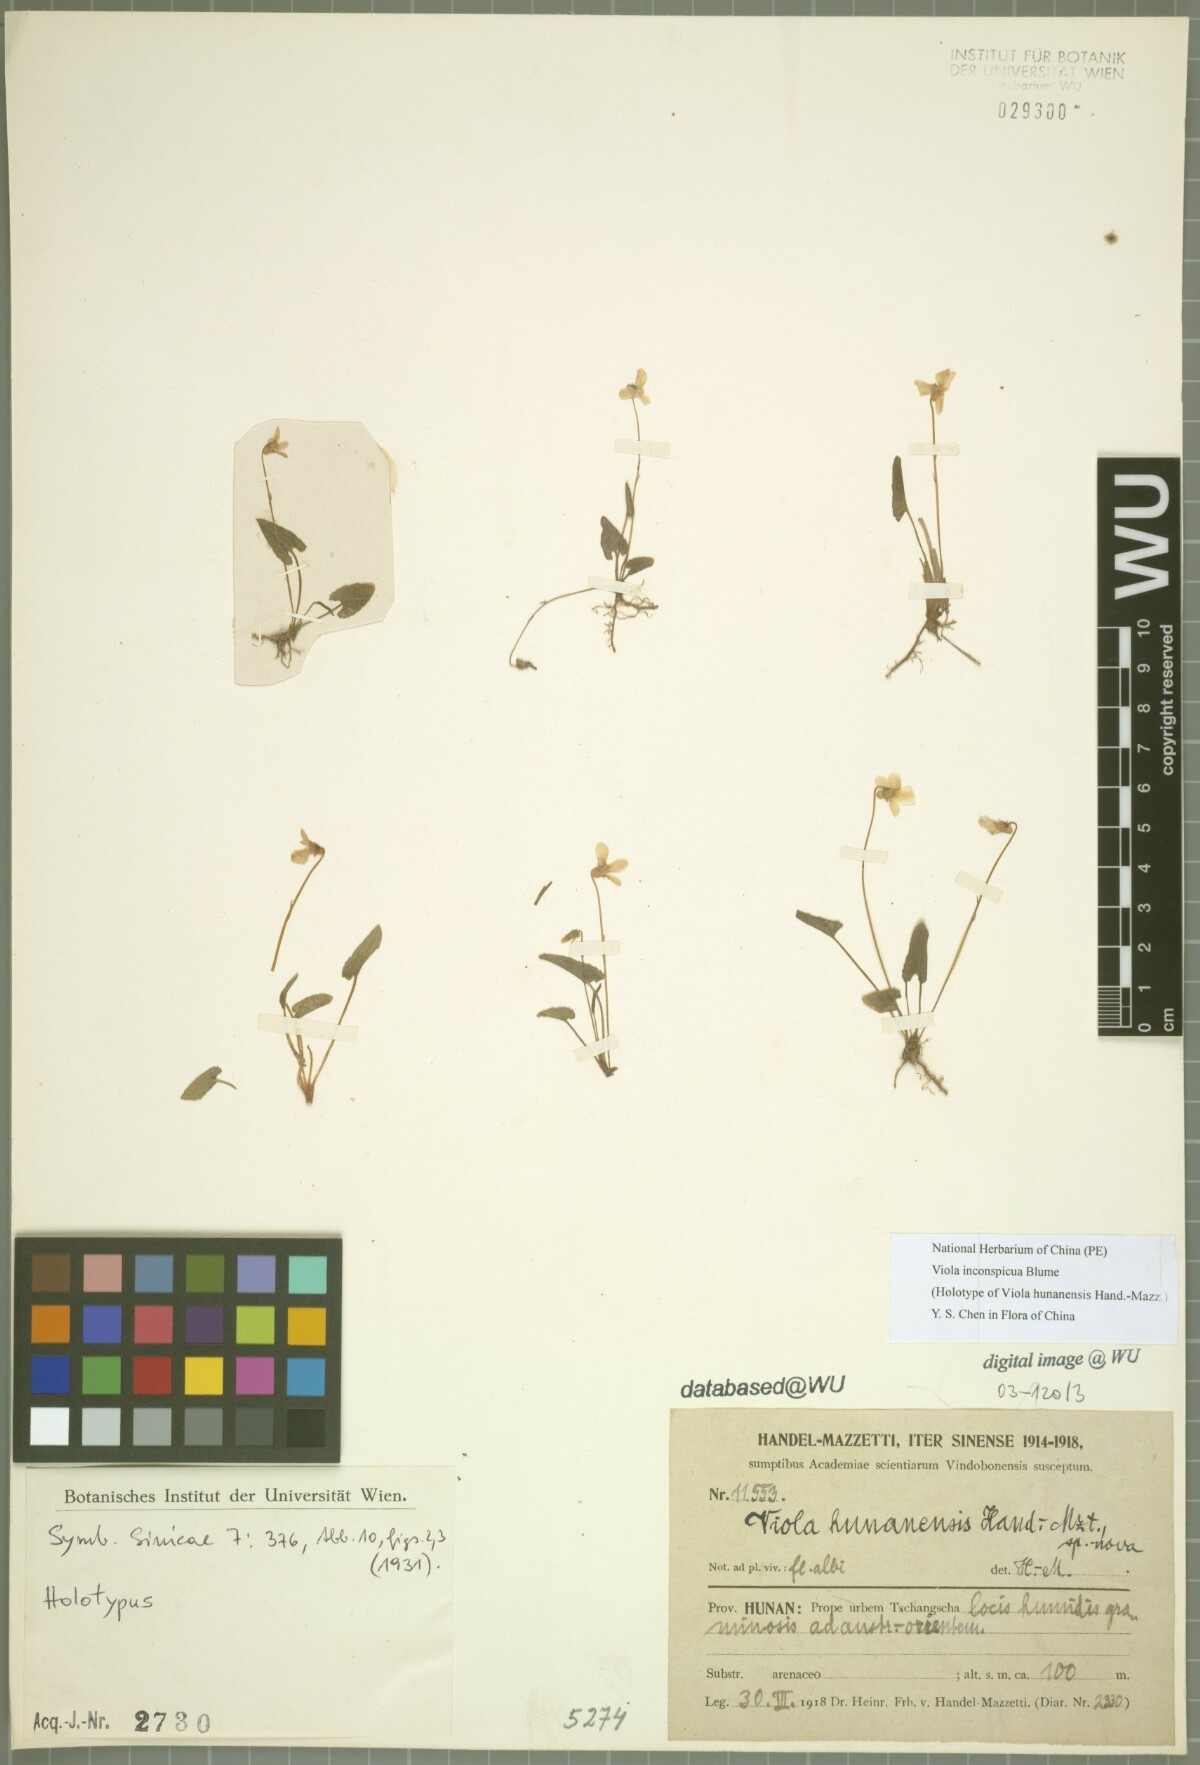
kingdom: Plantae
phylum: Tracheophyta
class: Magnoliopsida
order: Malpighiales
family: Violaceae
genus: Viola
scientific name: Viola inconspicua
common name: Long sepal violet
